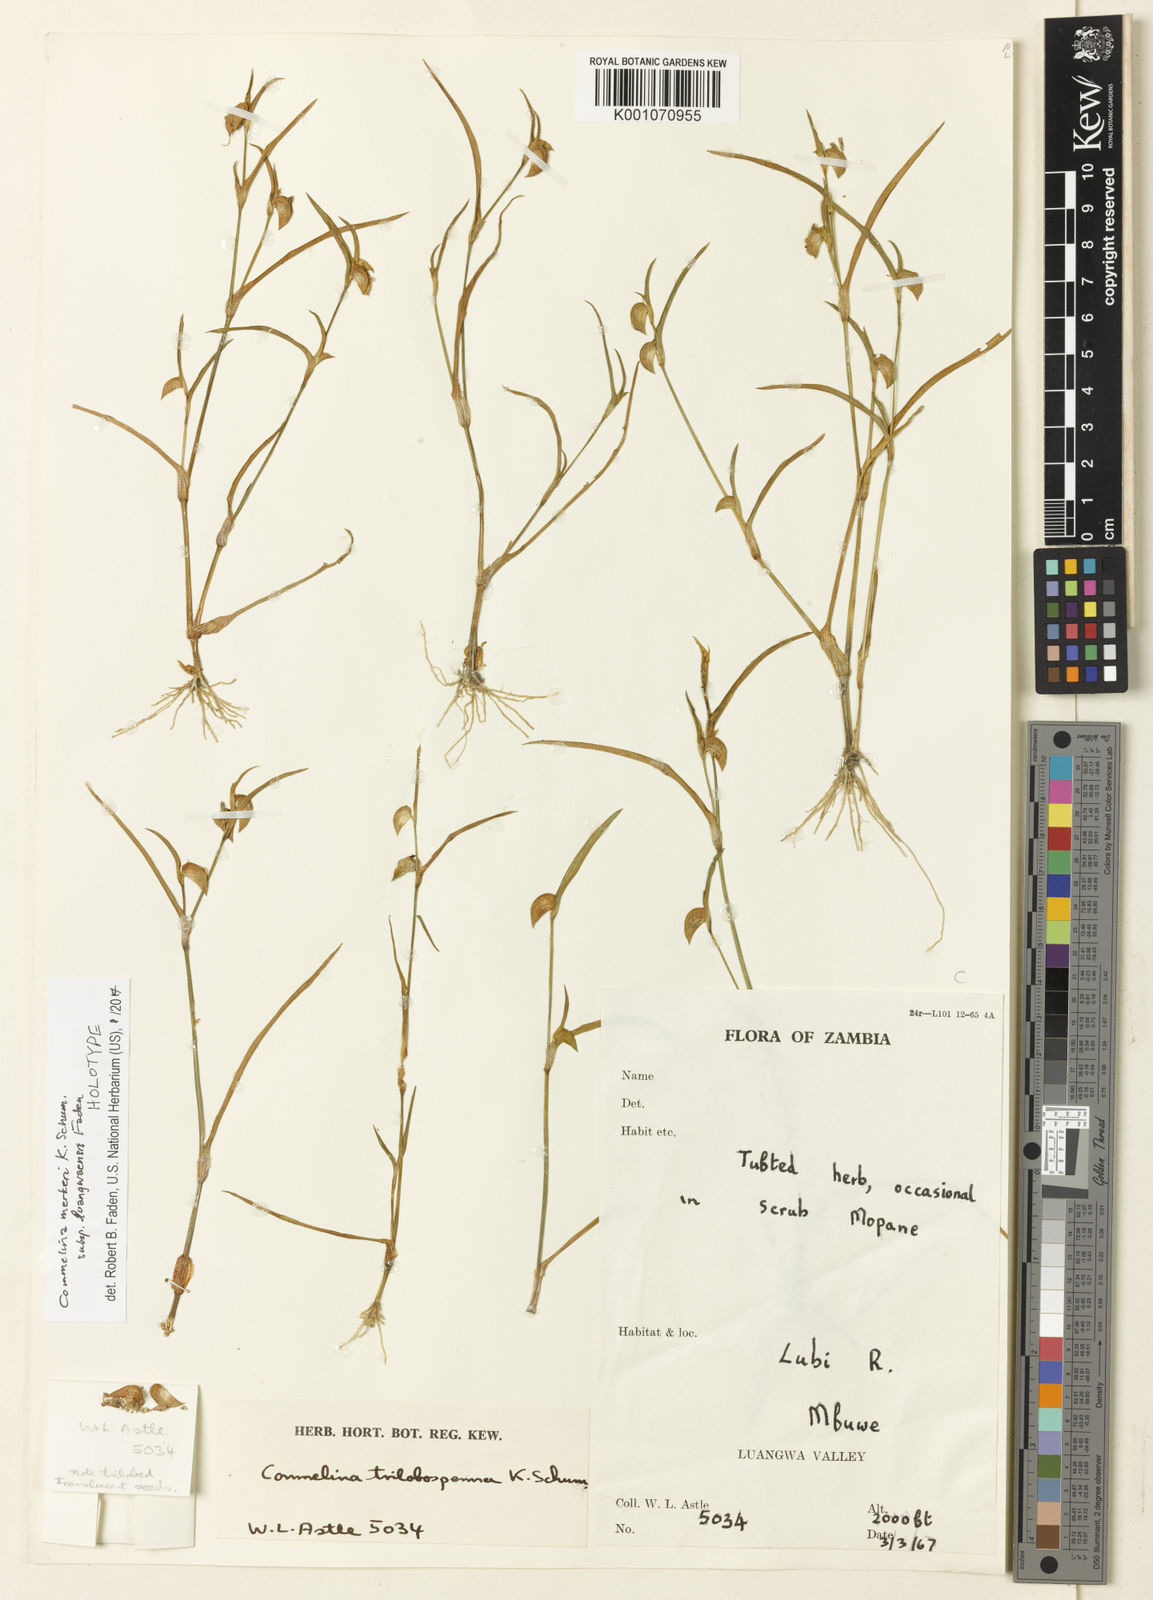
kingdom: Plantae
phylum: Tracheophyta
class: Liliopsida
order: Commelinales
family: Commelinaceae
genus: Commelina
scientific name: Commelina merkeri
